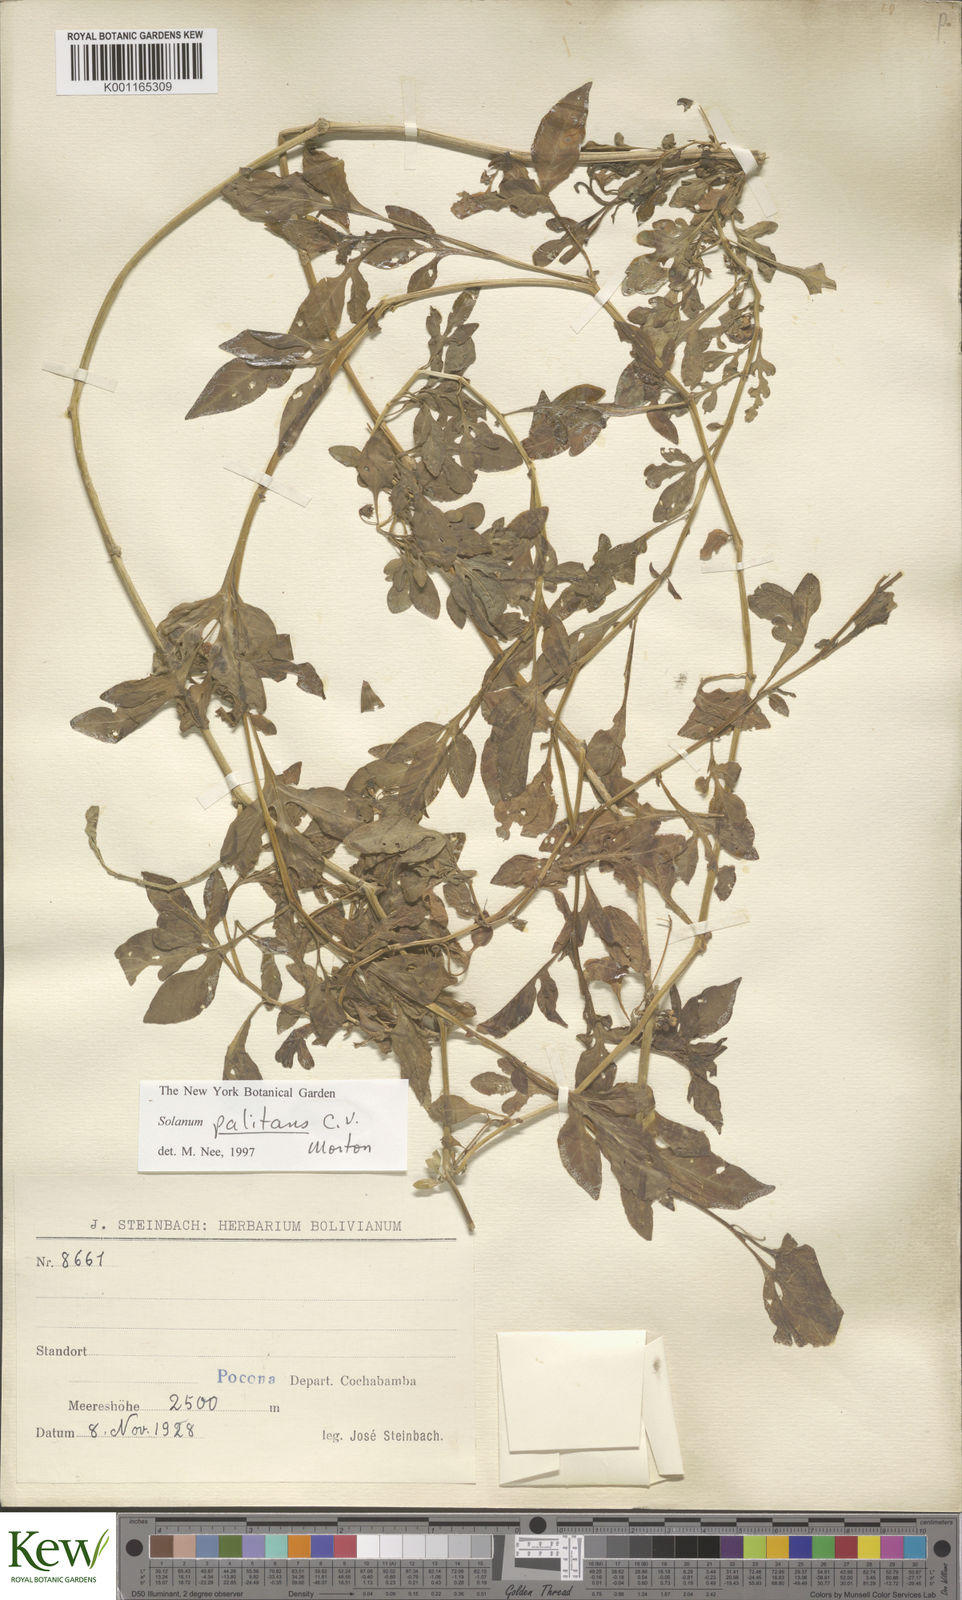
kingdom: Plantae
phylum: Tracheophyta
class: Magnoliopsida
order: Solanales
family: Solanaceae
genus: Solanum
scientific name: Solanum palitans
